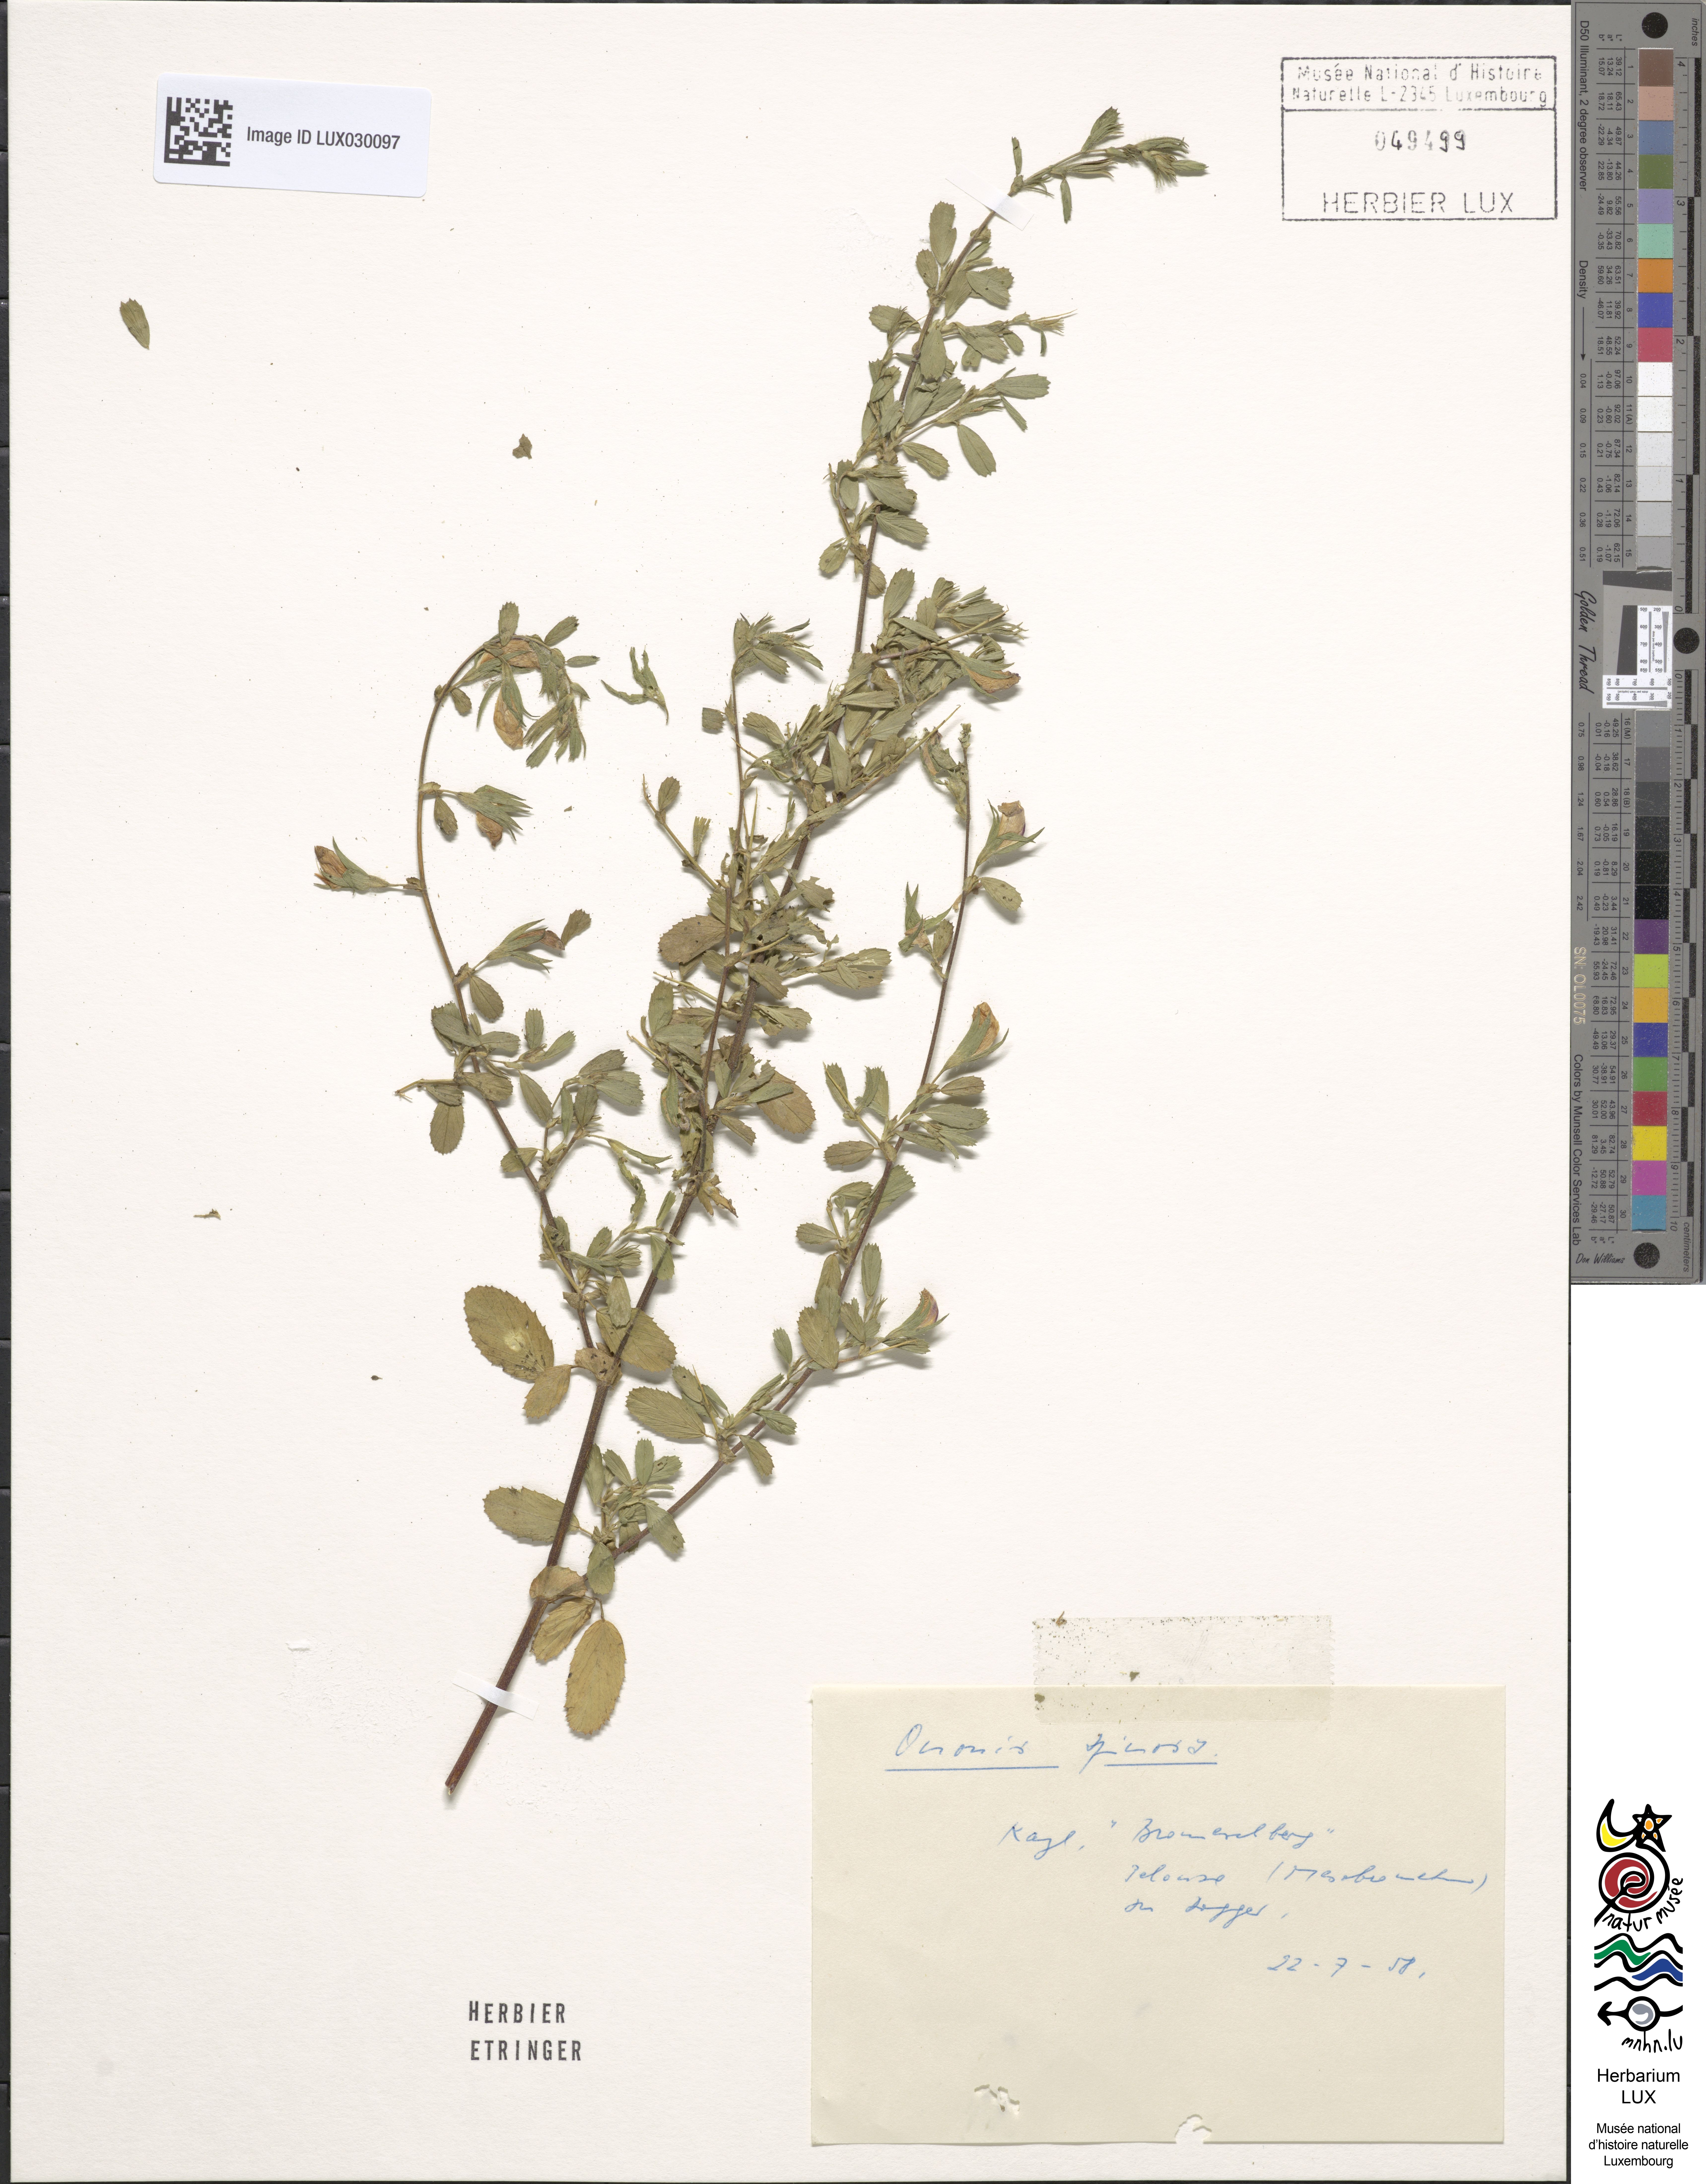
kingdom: Plantae
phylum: Tracheophyta
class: Magnoliopsida
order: Fabales
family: Fabaceae
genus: Ononis
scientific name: Ononis spinosa
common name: Spiny restharrow
